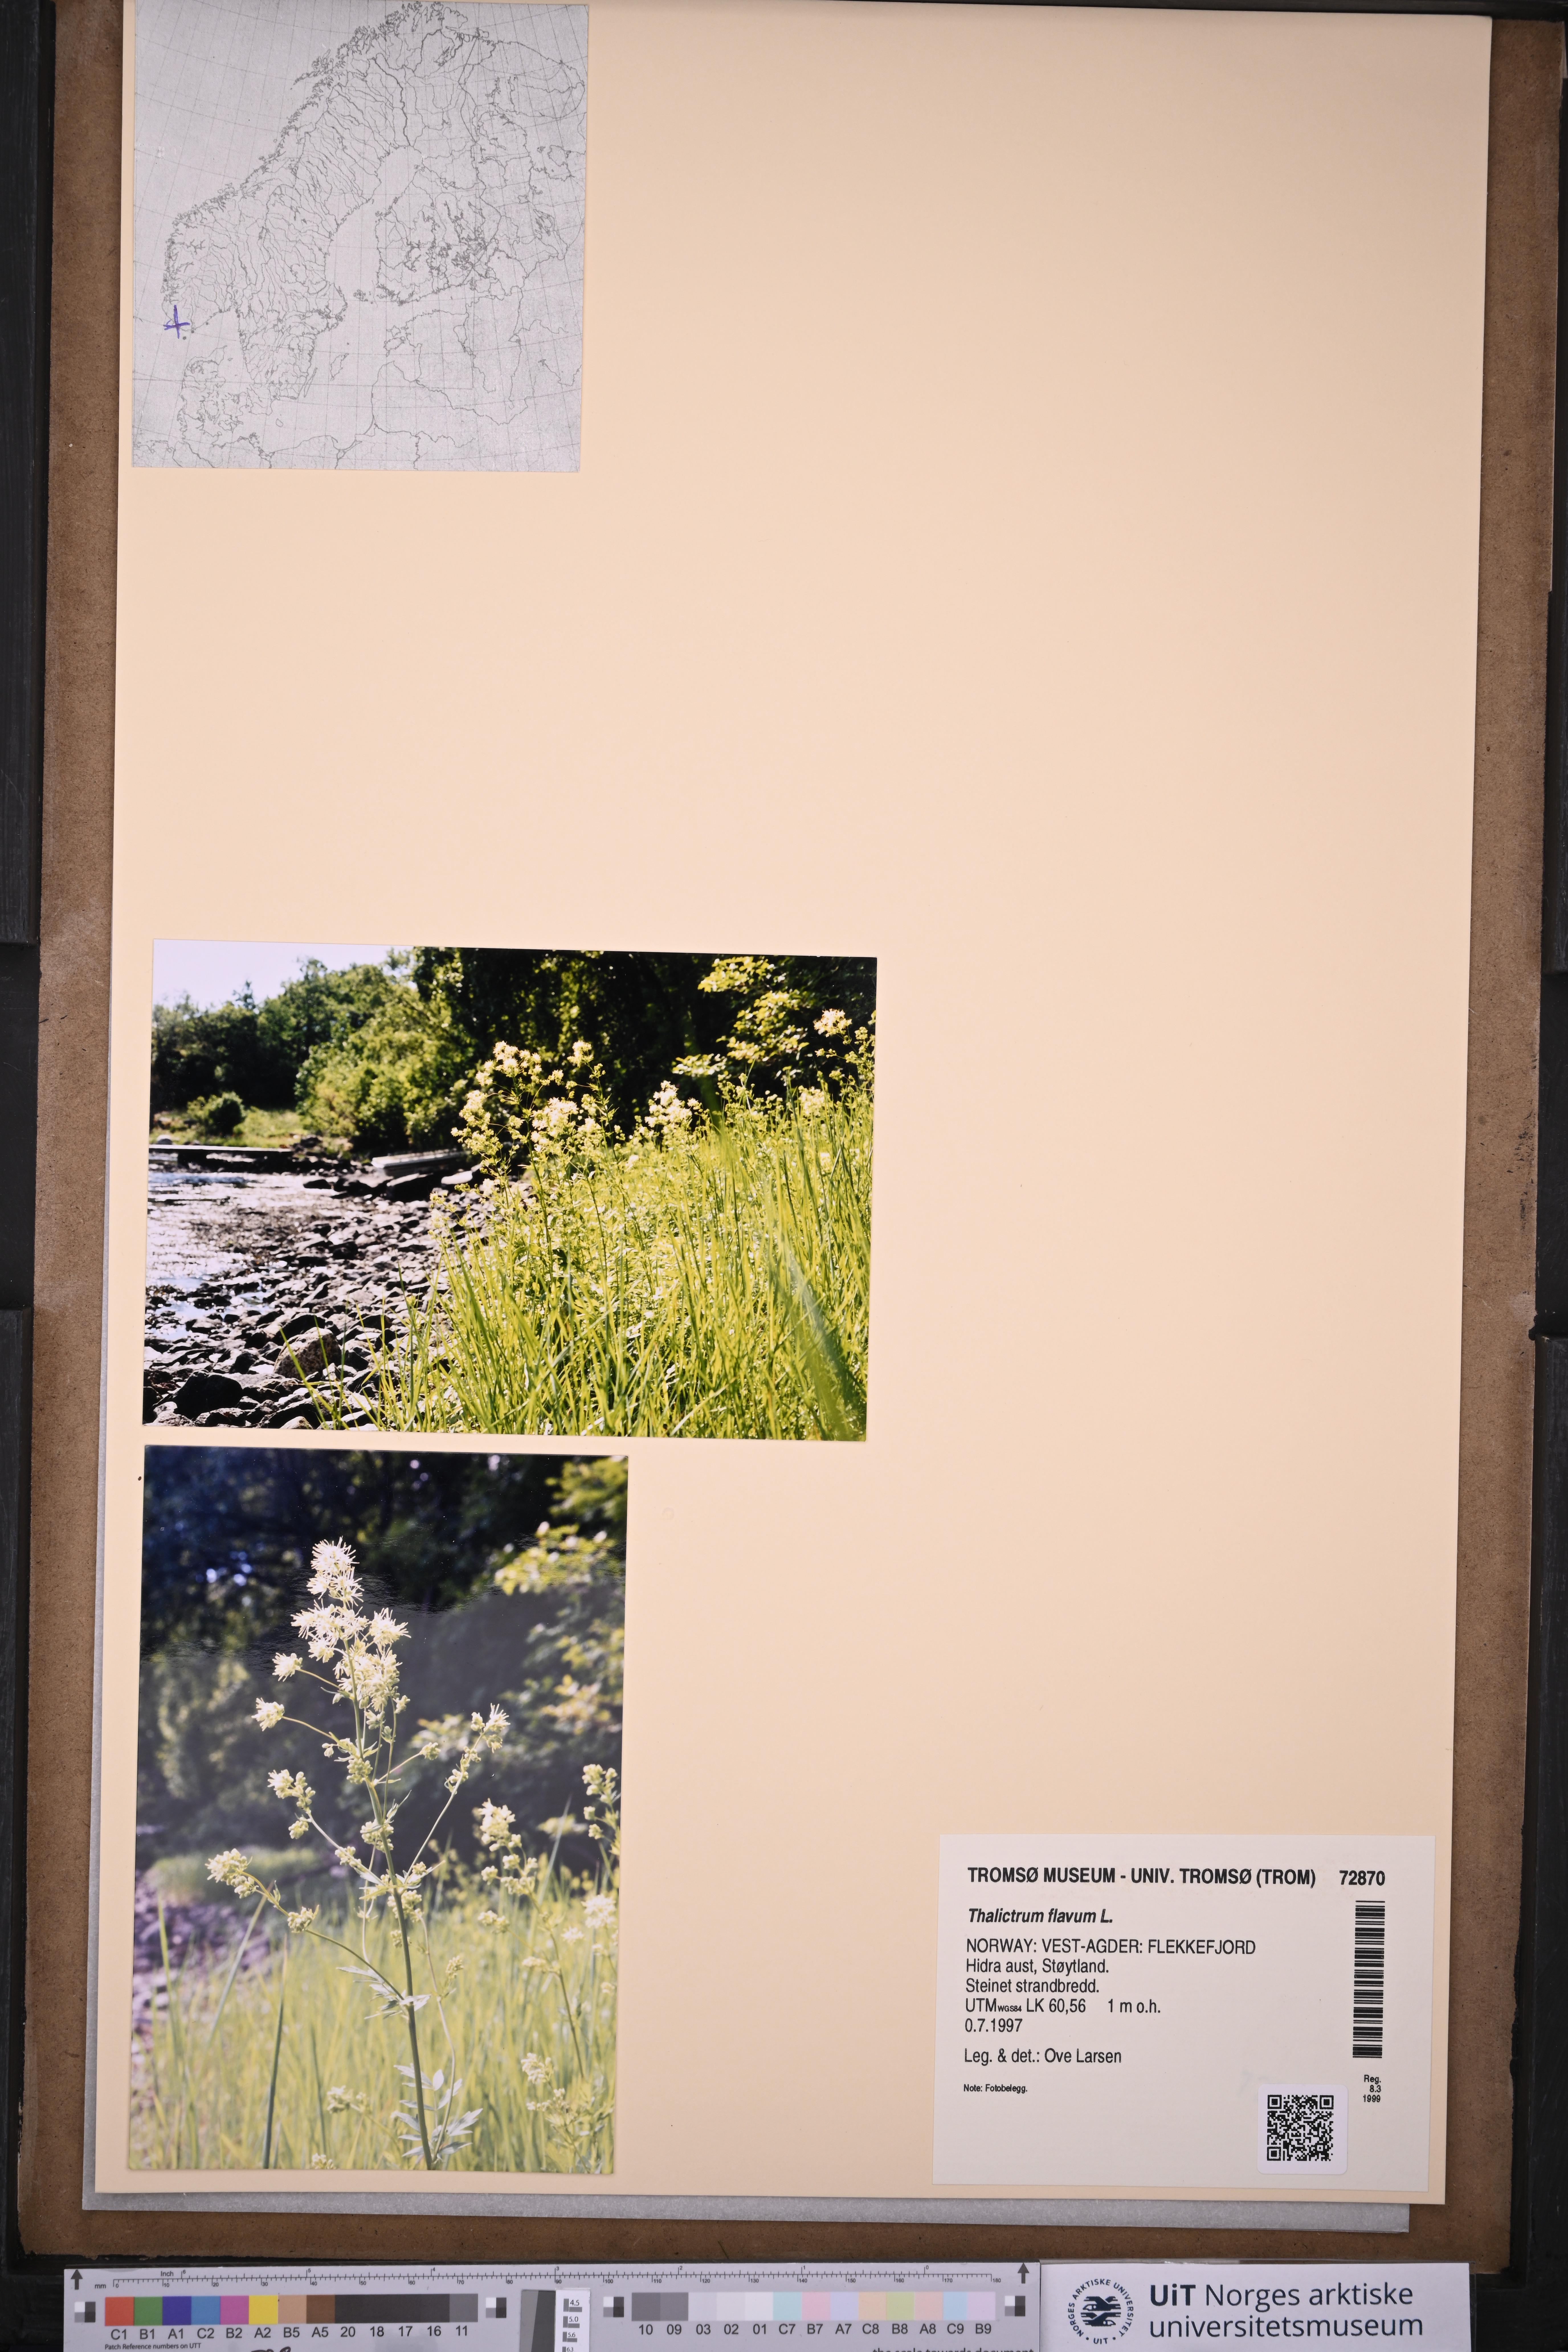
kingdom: Plantae
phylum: Tracheophyta
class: Magnoliopsida
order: Ranunculales
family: Ranunculaceae
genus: Thalictrum
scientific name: Thalictrum flavum
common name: Common meadow-rue
